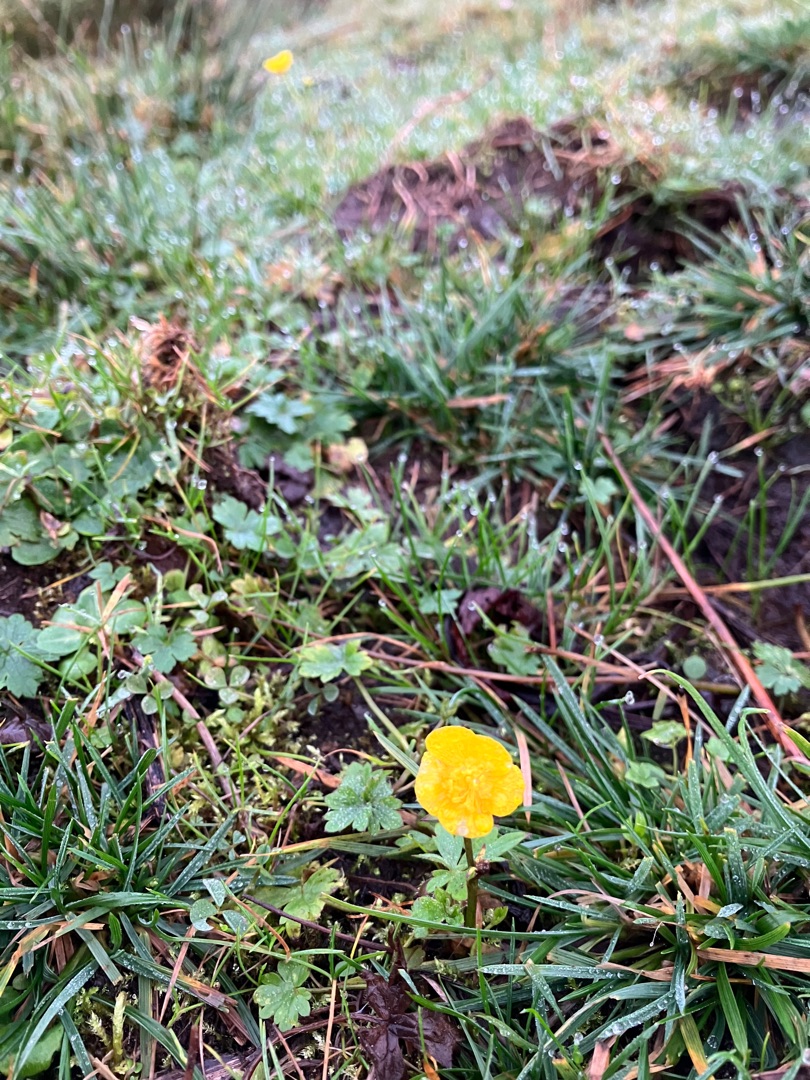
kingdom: Plantae
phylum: Tracheophyta
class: Magnoliopsida
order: Ranunculales
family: Ranunculaceae
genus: Ranunculus
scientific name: Ranunculus repens
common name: Lav ranunkel
